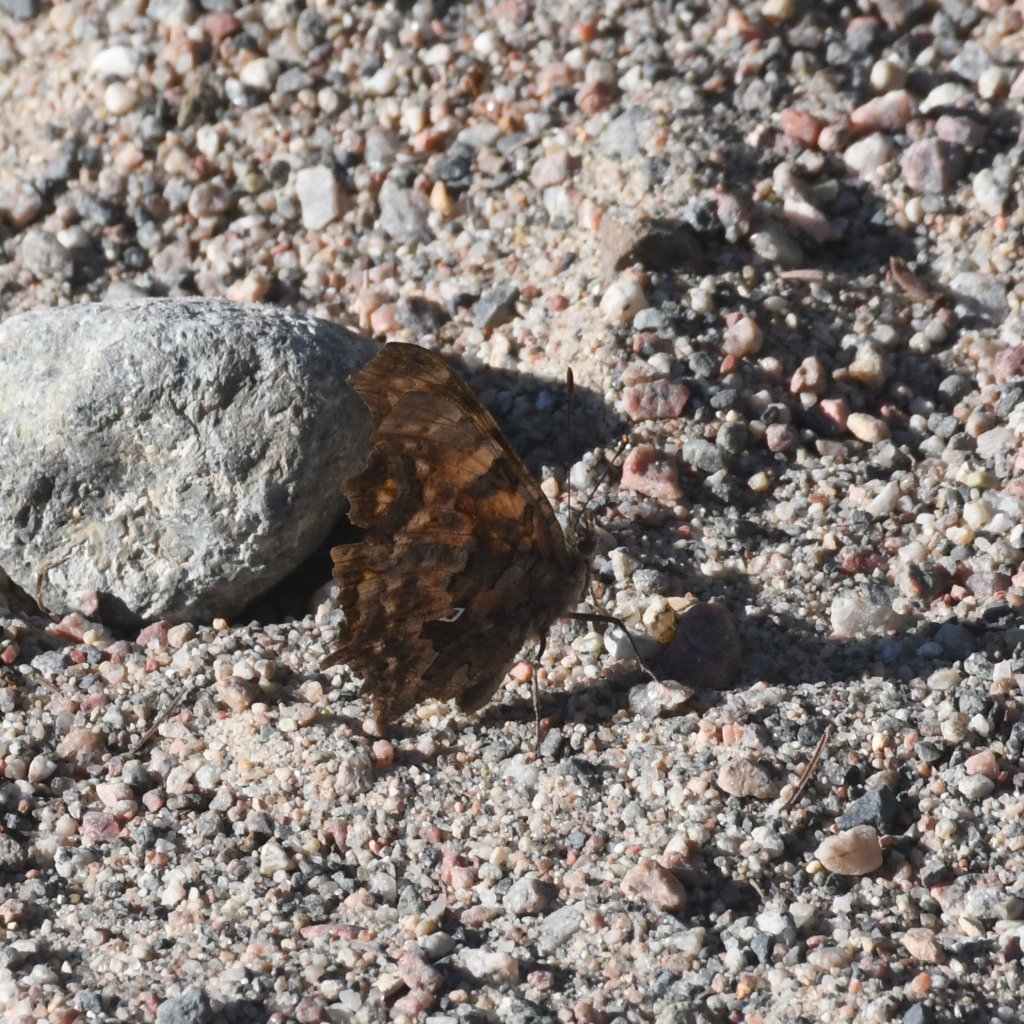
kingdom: Animalia
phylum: Arthropoda
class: Insecta
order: Lepidoptera
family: Nymphalidae
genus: Polygonia
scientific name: Polygonia faunus
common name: Green Comma
